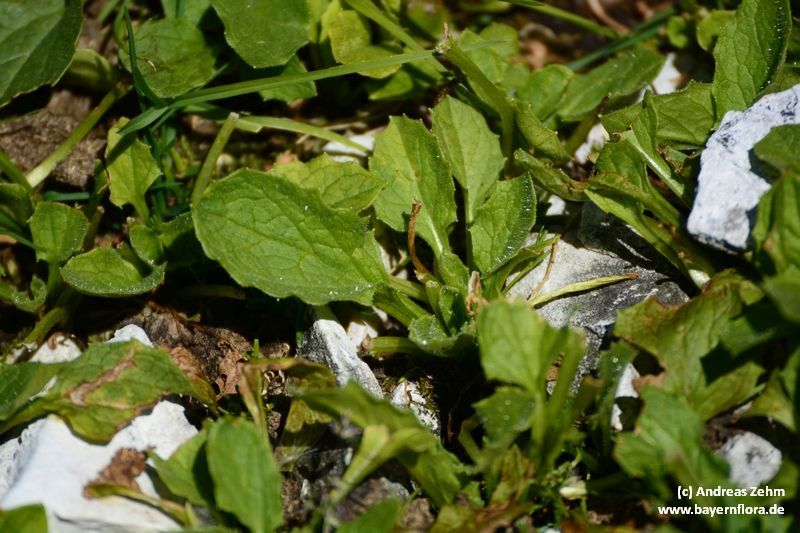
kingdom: Plantae
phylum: Tracheophyta
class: Magnoliopsida
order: Asterales
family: Asteraceae
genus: Doronicum
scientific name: Doronicum grandiflorum
